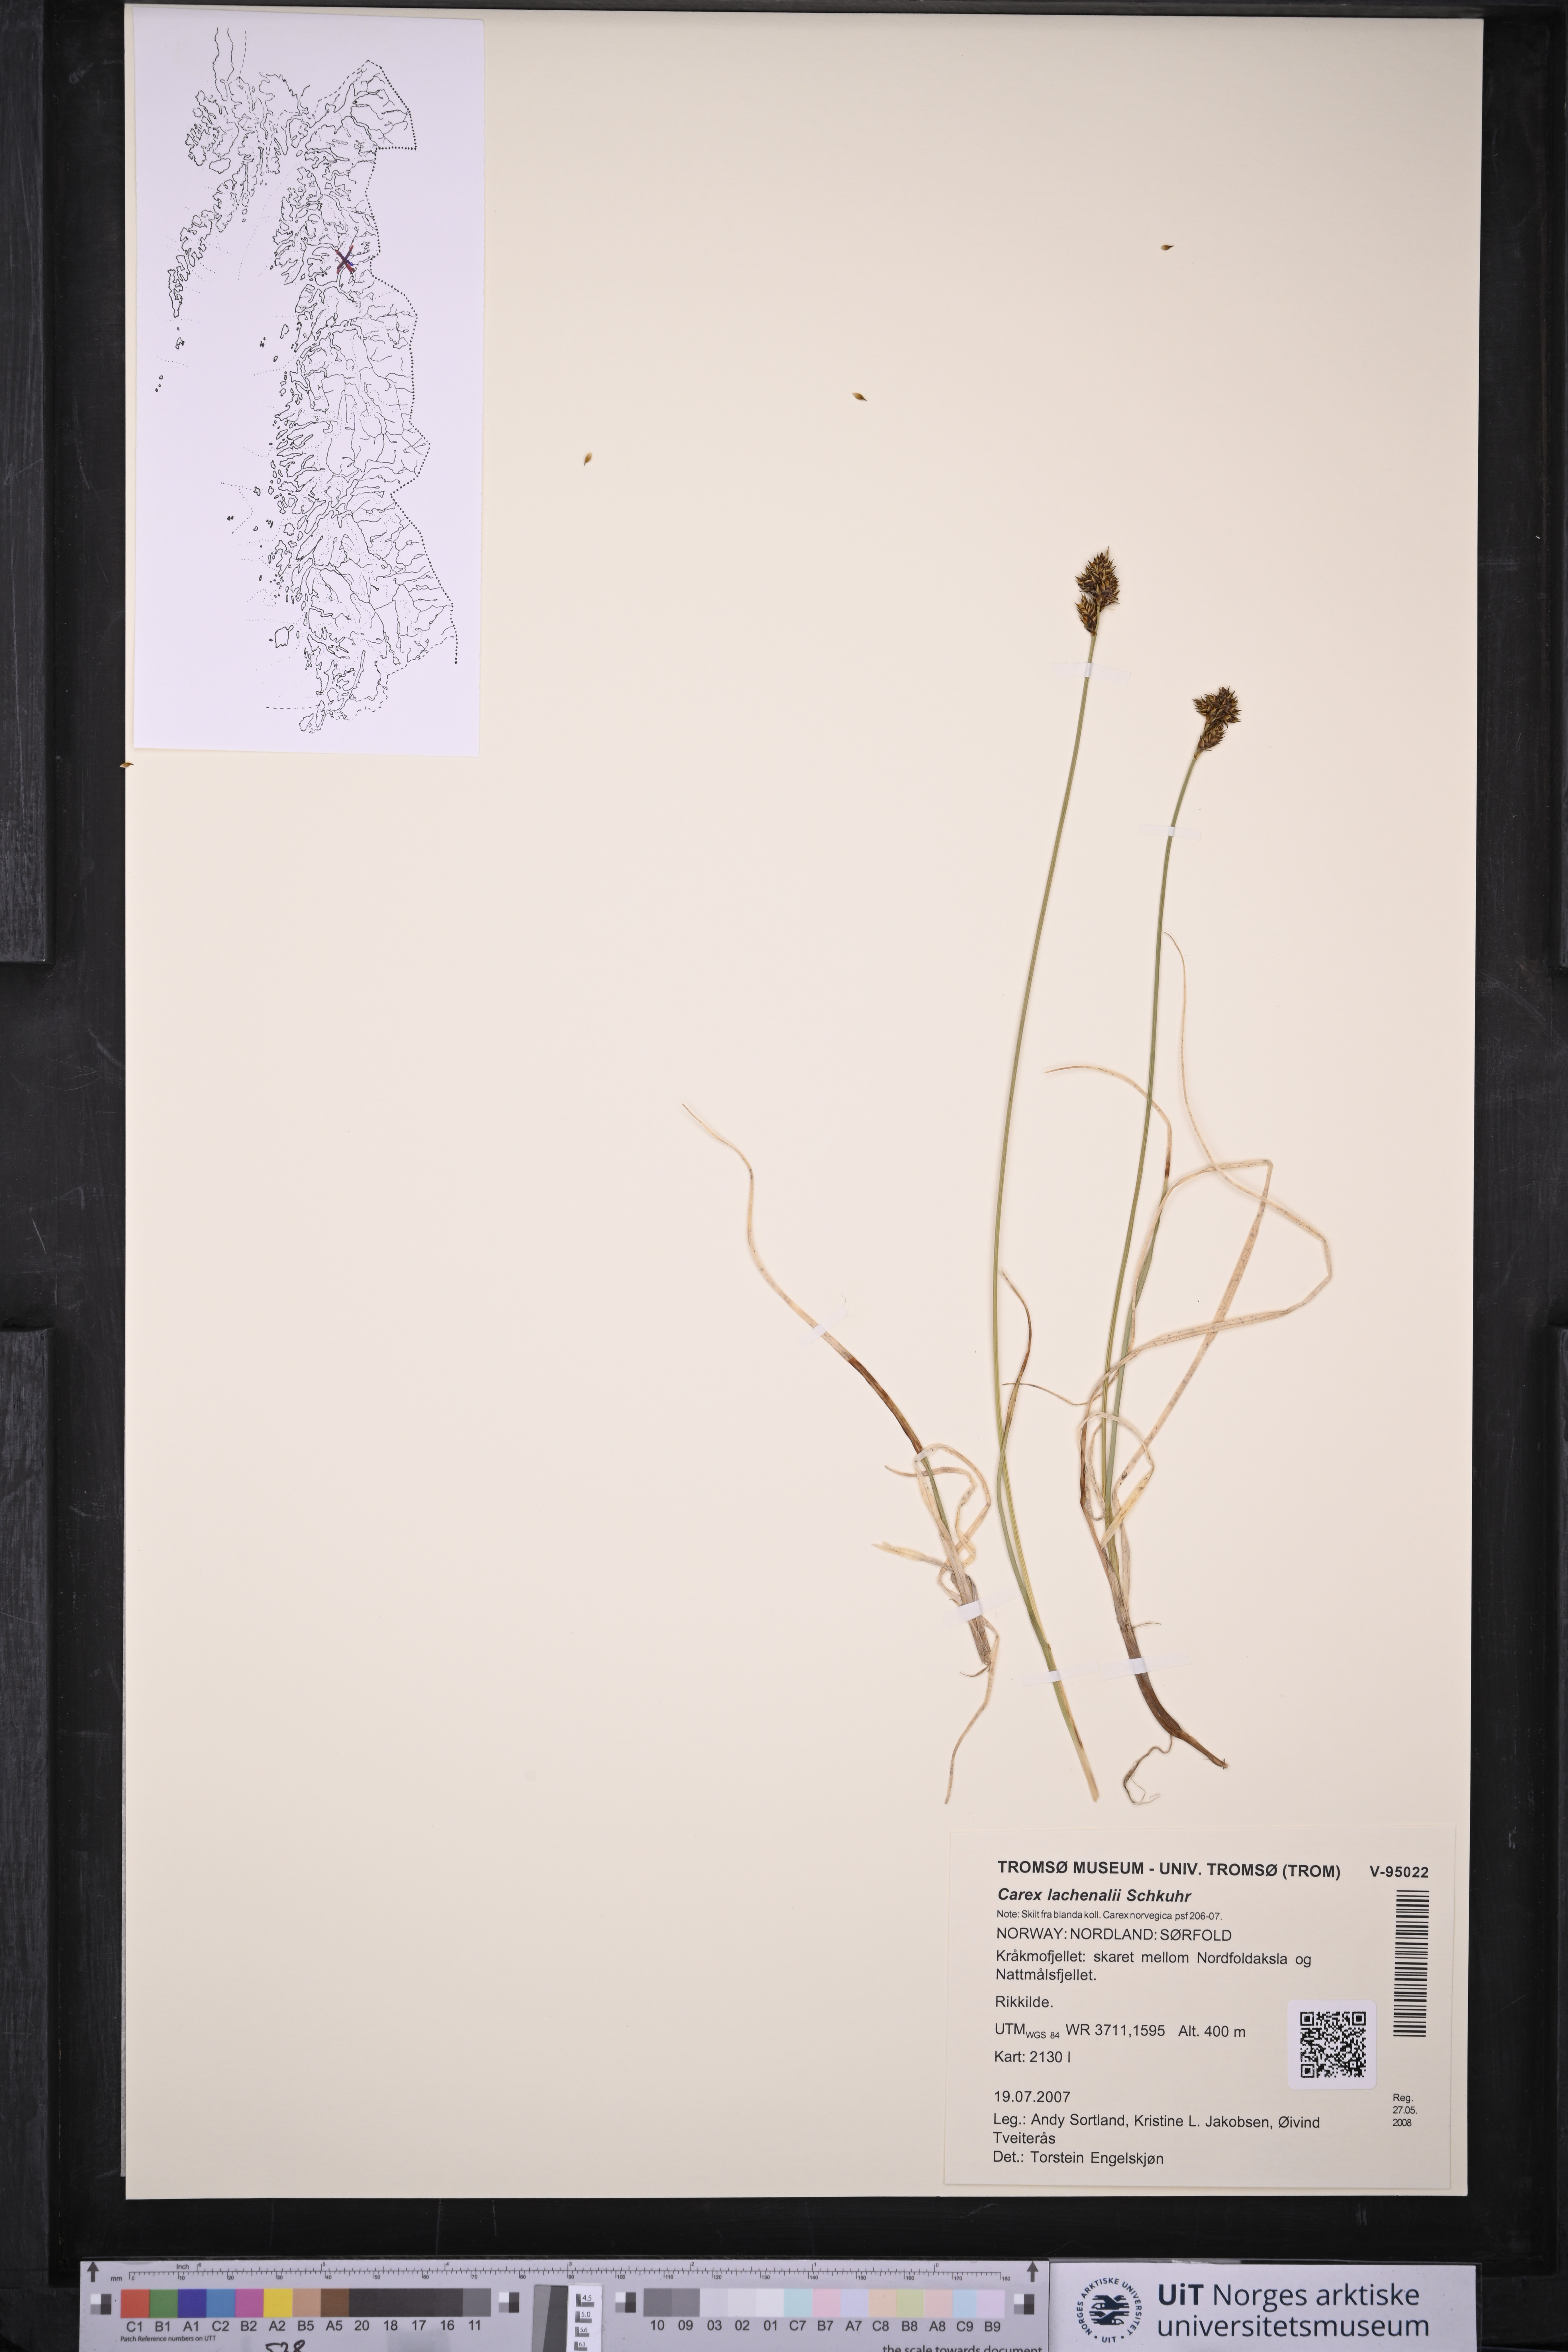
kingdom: Plantae
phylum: Tracheophyta
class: Liliopsida
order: Poales
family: Cyperaceae
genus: Carex
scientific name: Carex lachenalii
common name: Hare's-foot sedge
